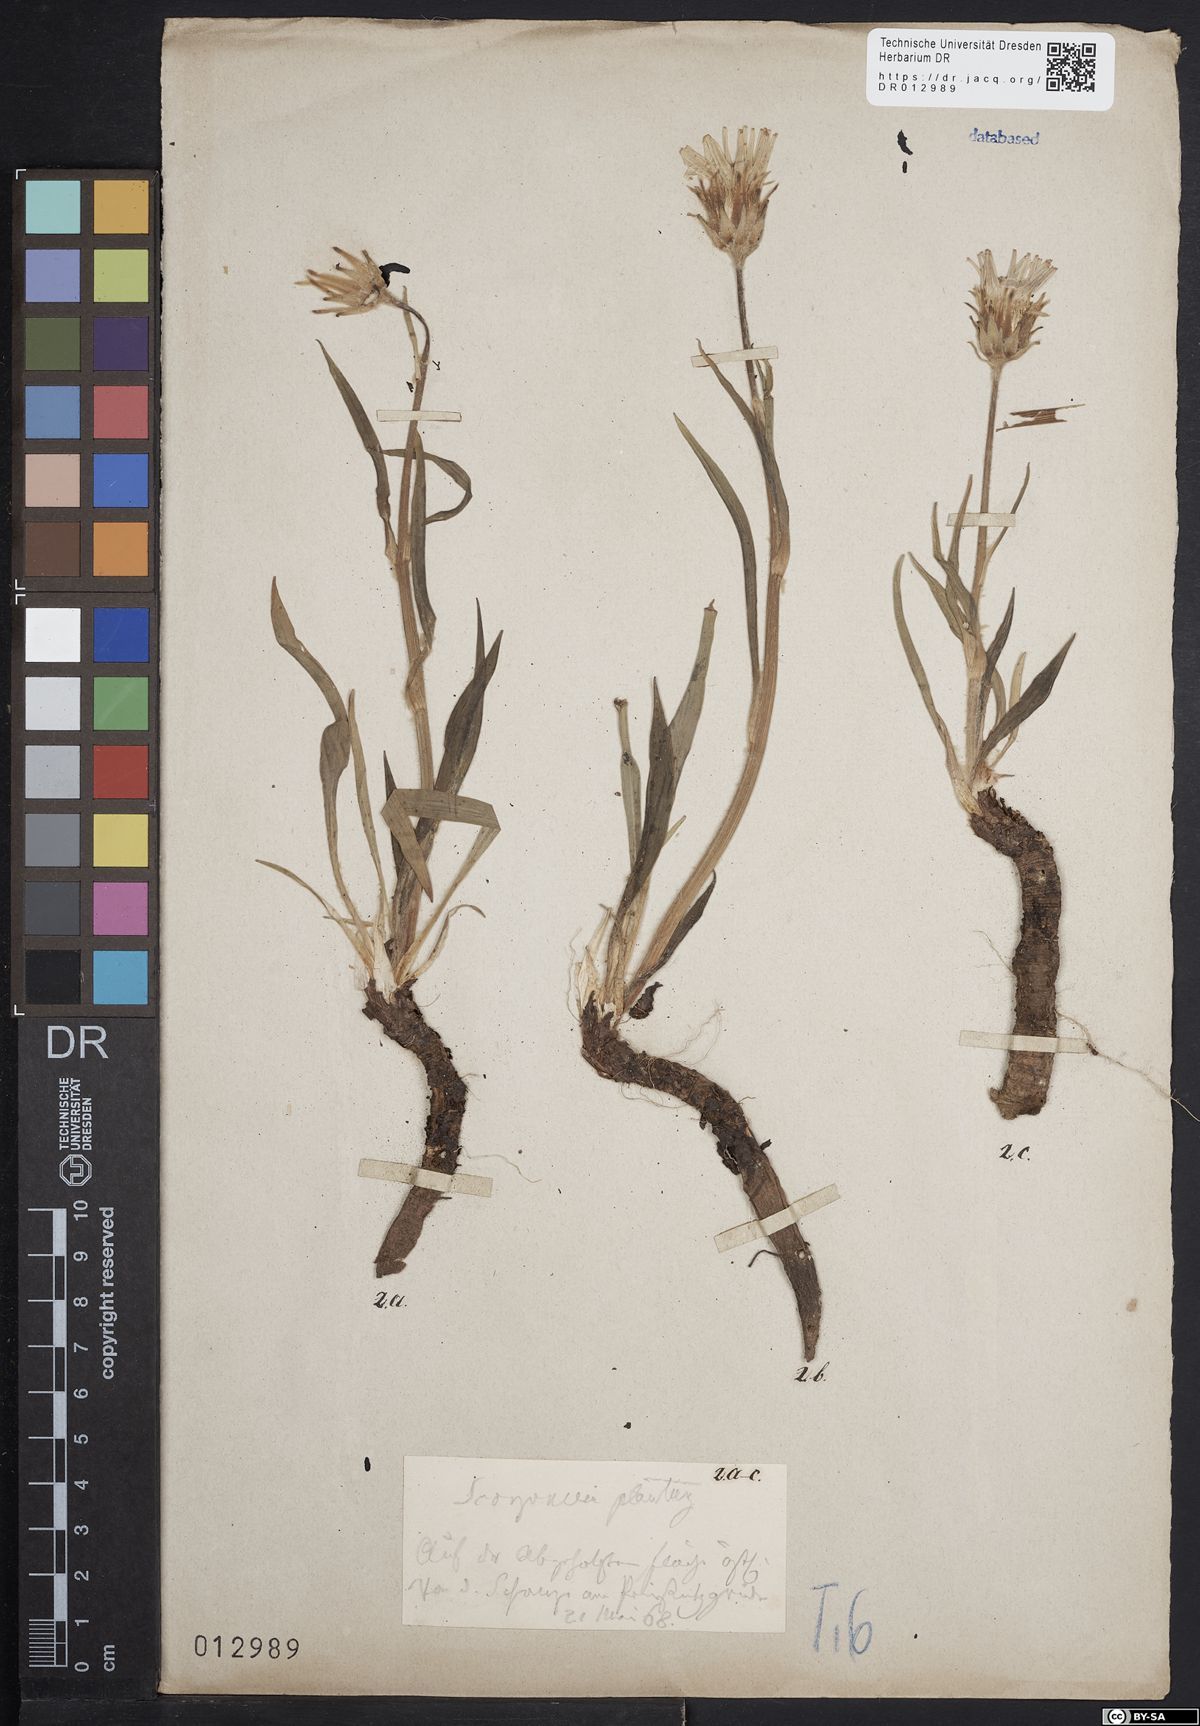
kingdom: Plantae
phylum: Tracheophyta
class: Magnoliopsida
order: Asterales
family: Asteraceae
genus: Scorzonera
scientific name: Scorzonera humilis
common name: Viper's-grass
